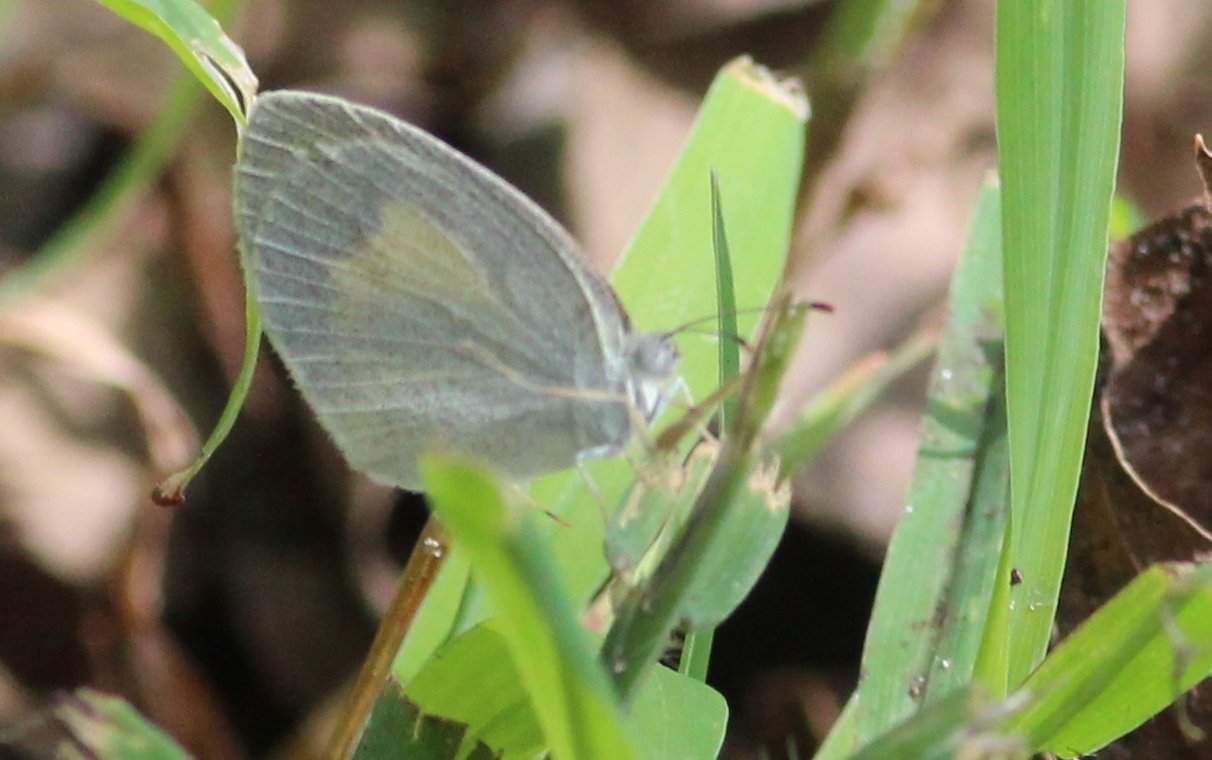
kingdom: Animalia
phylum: Arthropoda
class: Insecta
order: Lepidoptera
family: Pieridae
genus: Eurema
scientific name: Eurema daira
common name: Barred Yellow
